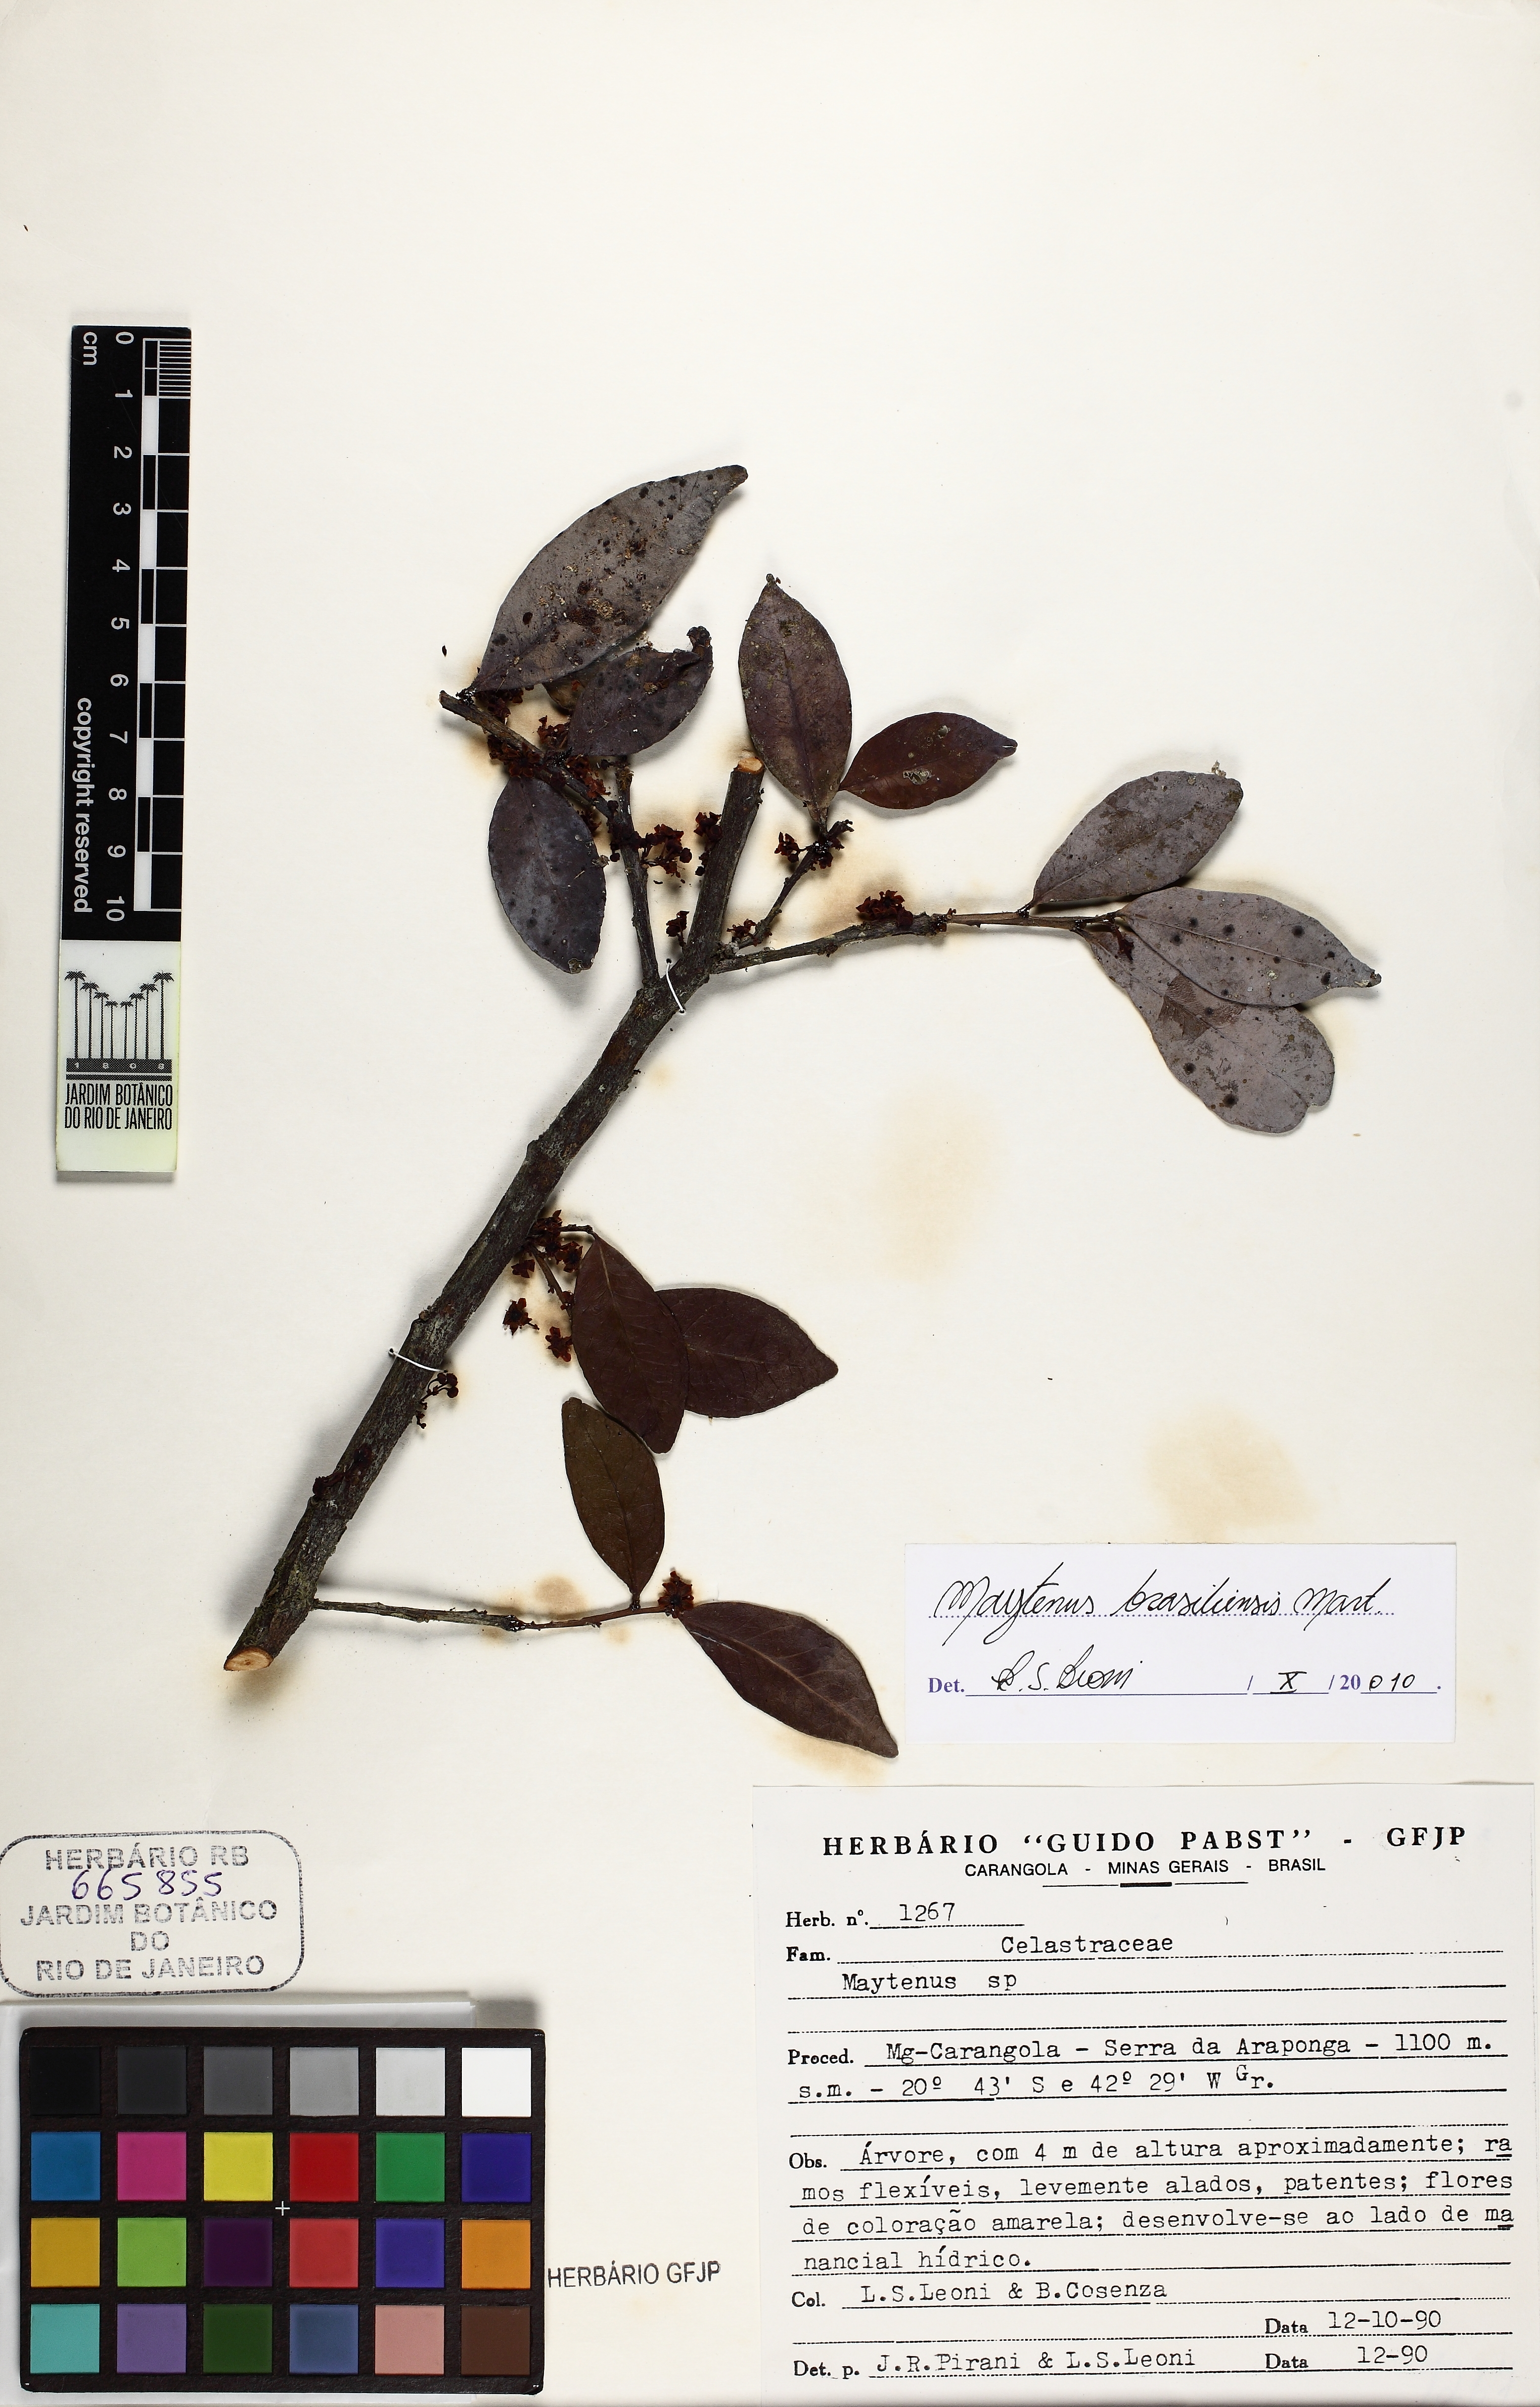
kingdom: Plantae
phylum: Tracheophyta
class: Magnoliopsida
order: Celastrales
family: Celastraceae
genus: Monteverdia
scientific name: Monteverdia brasiliensis
